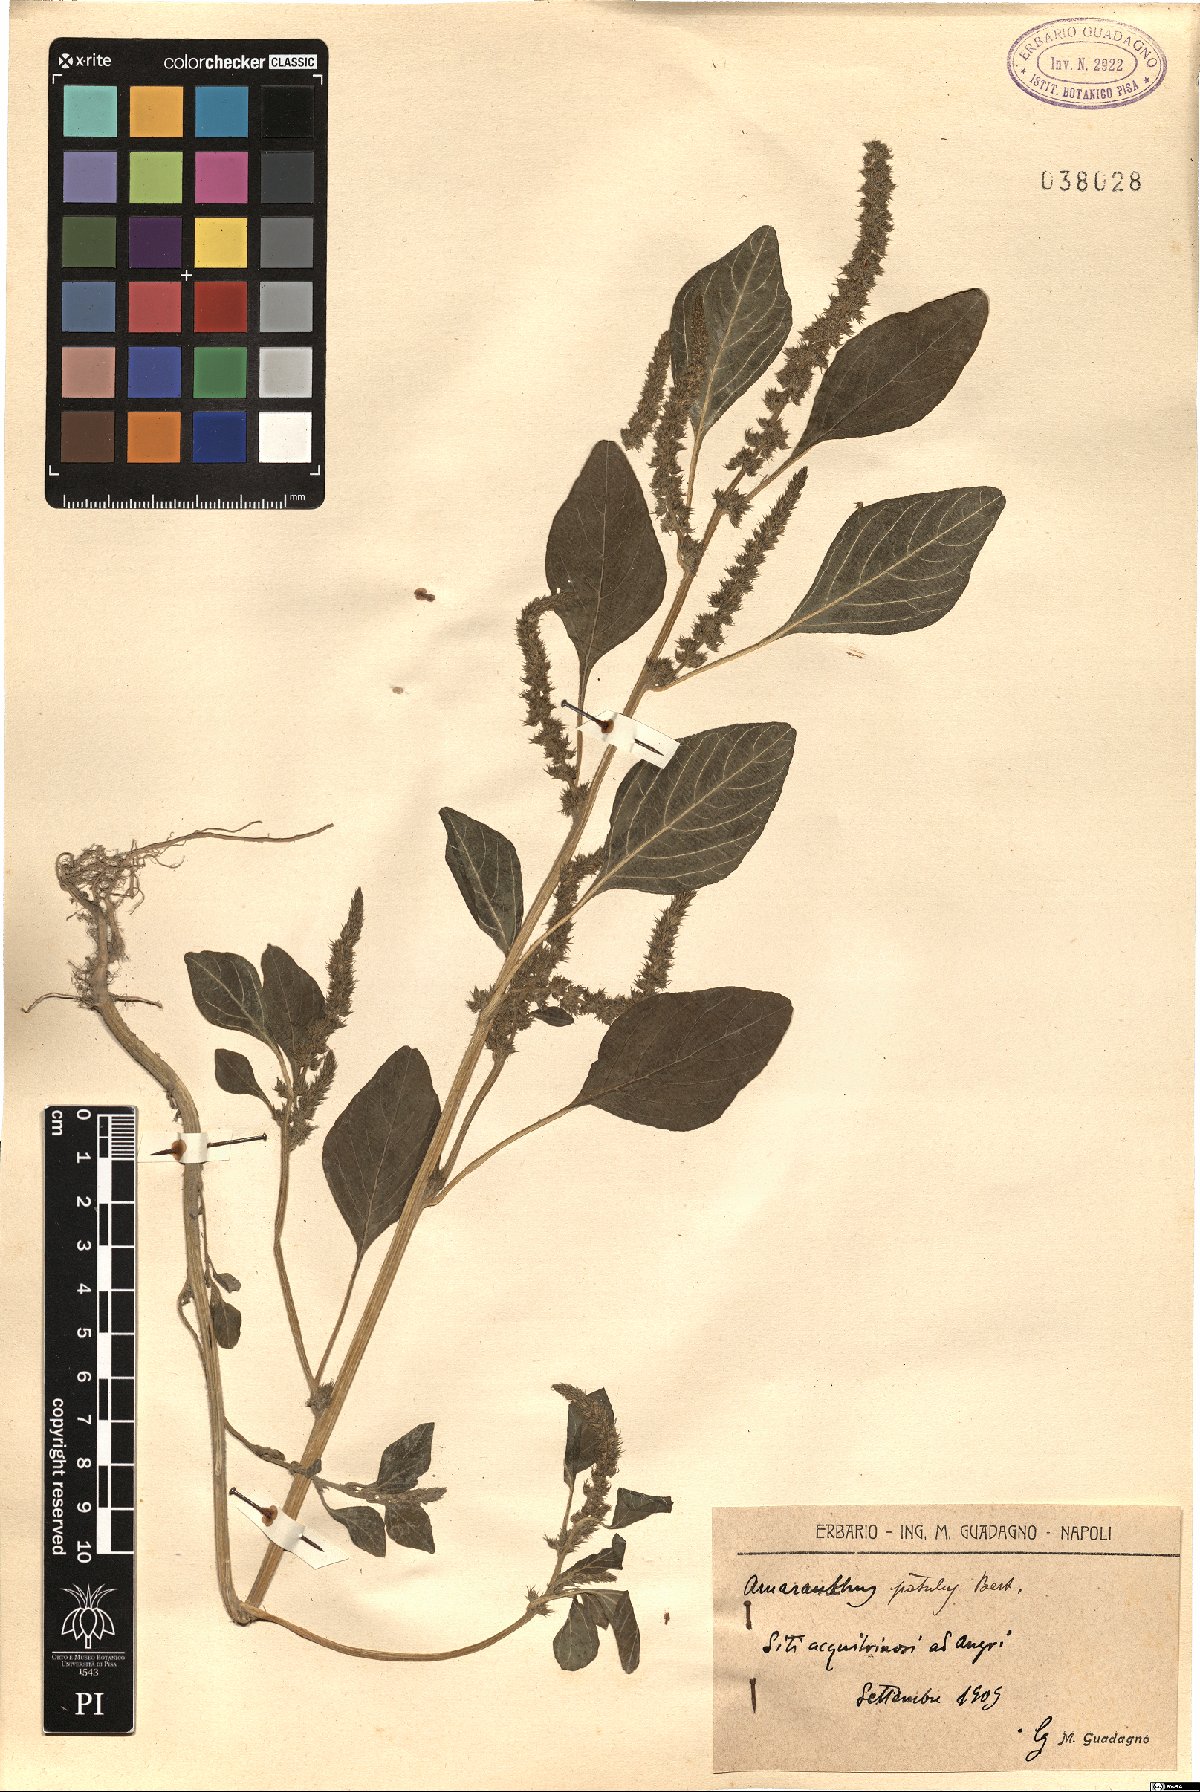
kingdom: Plantae
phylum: Tracheophyta
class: Magnoliopsida
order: Caryophyllales
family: Amaranthaceae
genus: Amaranthus
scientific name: Amaranthus hybridus
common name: Green amaranth
